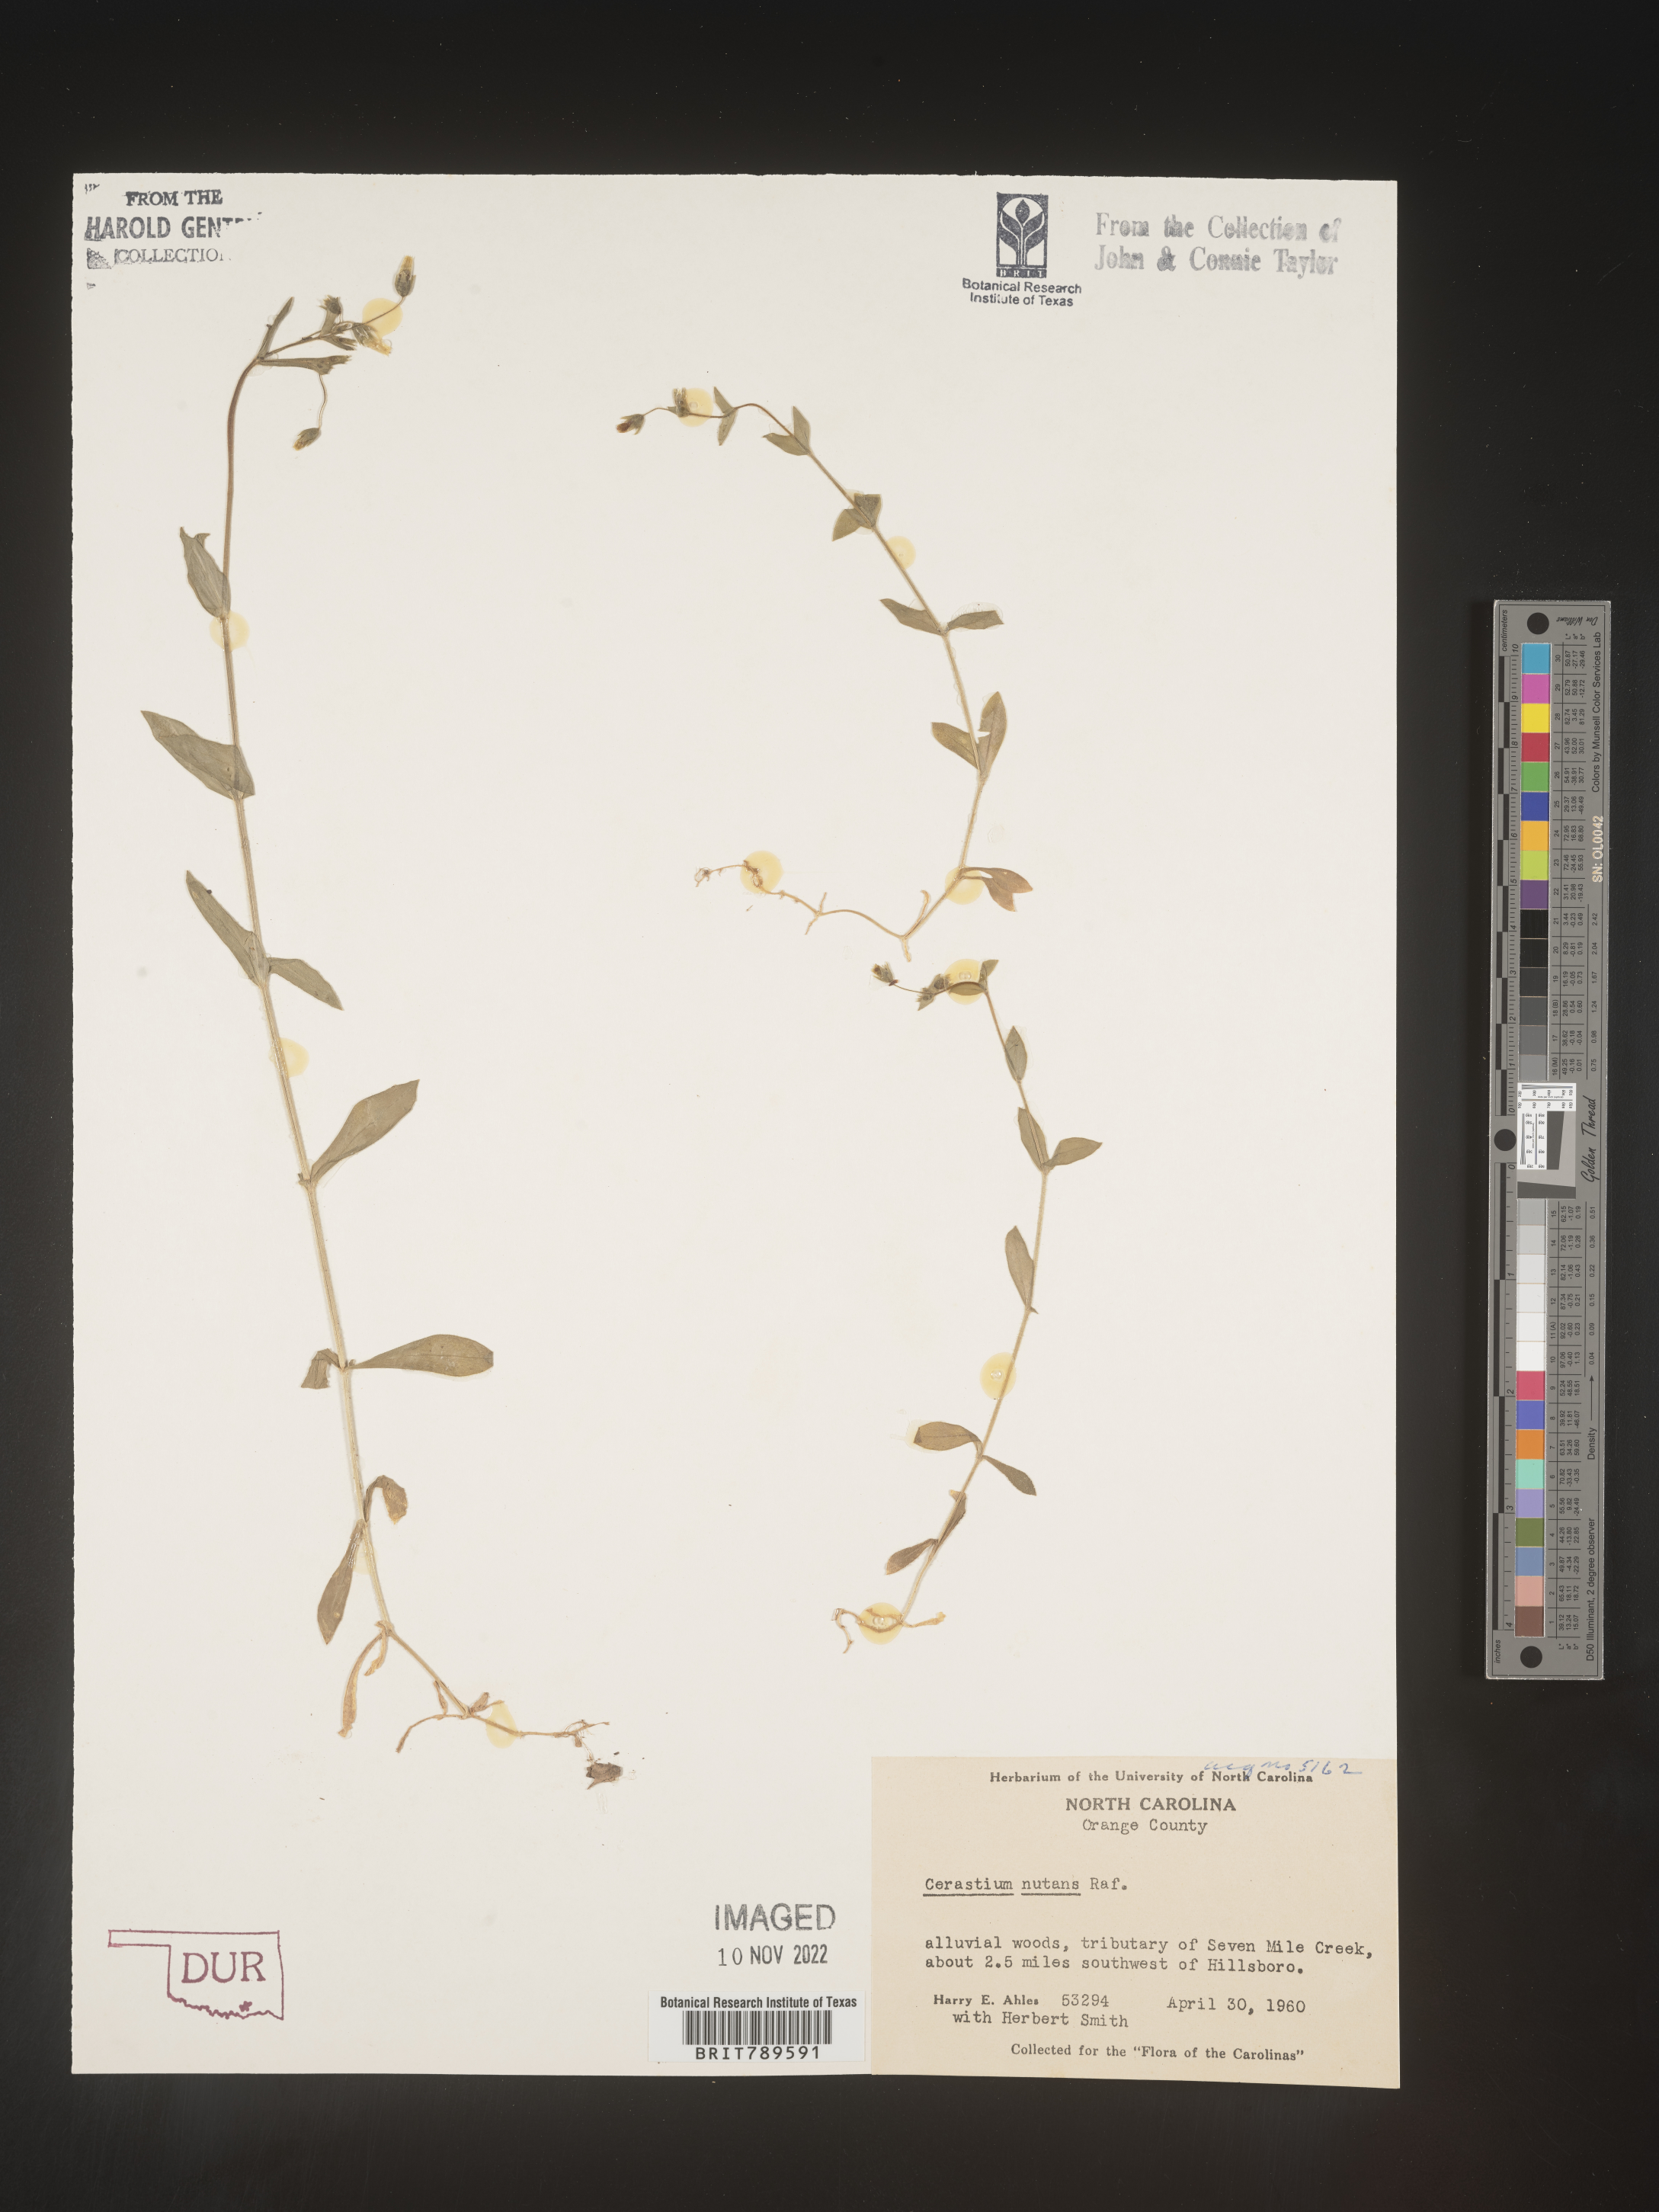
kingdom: Plantae
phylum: Tracheophyta
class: Magnoliopsida
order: Caryophyllales
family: Caryophyllaceae
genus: Cerastium
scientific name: Cerastium nutans
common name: Long-stalked chickweed
